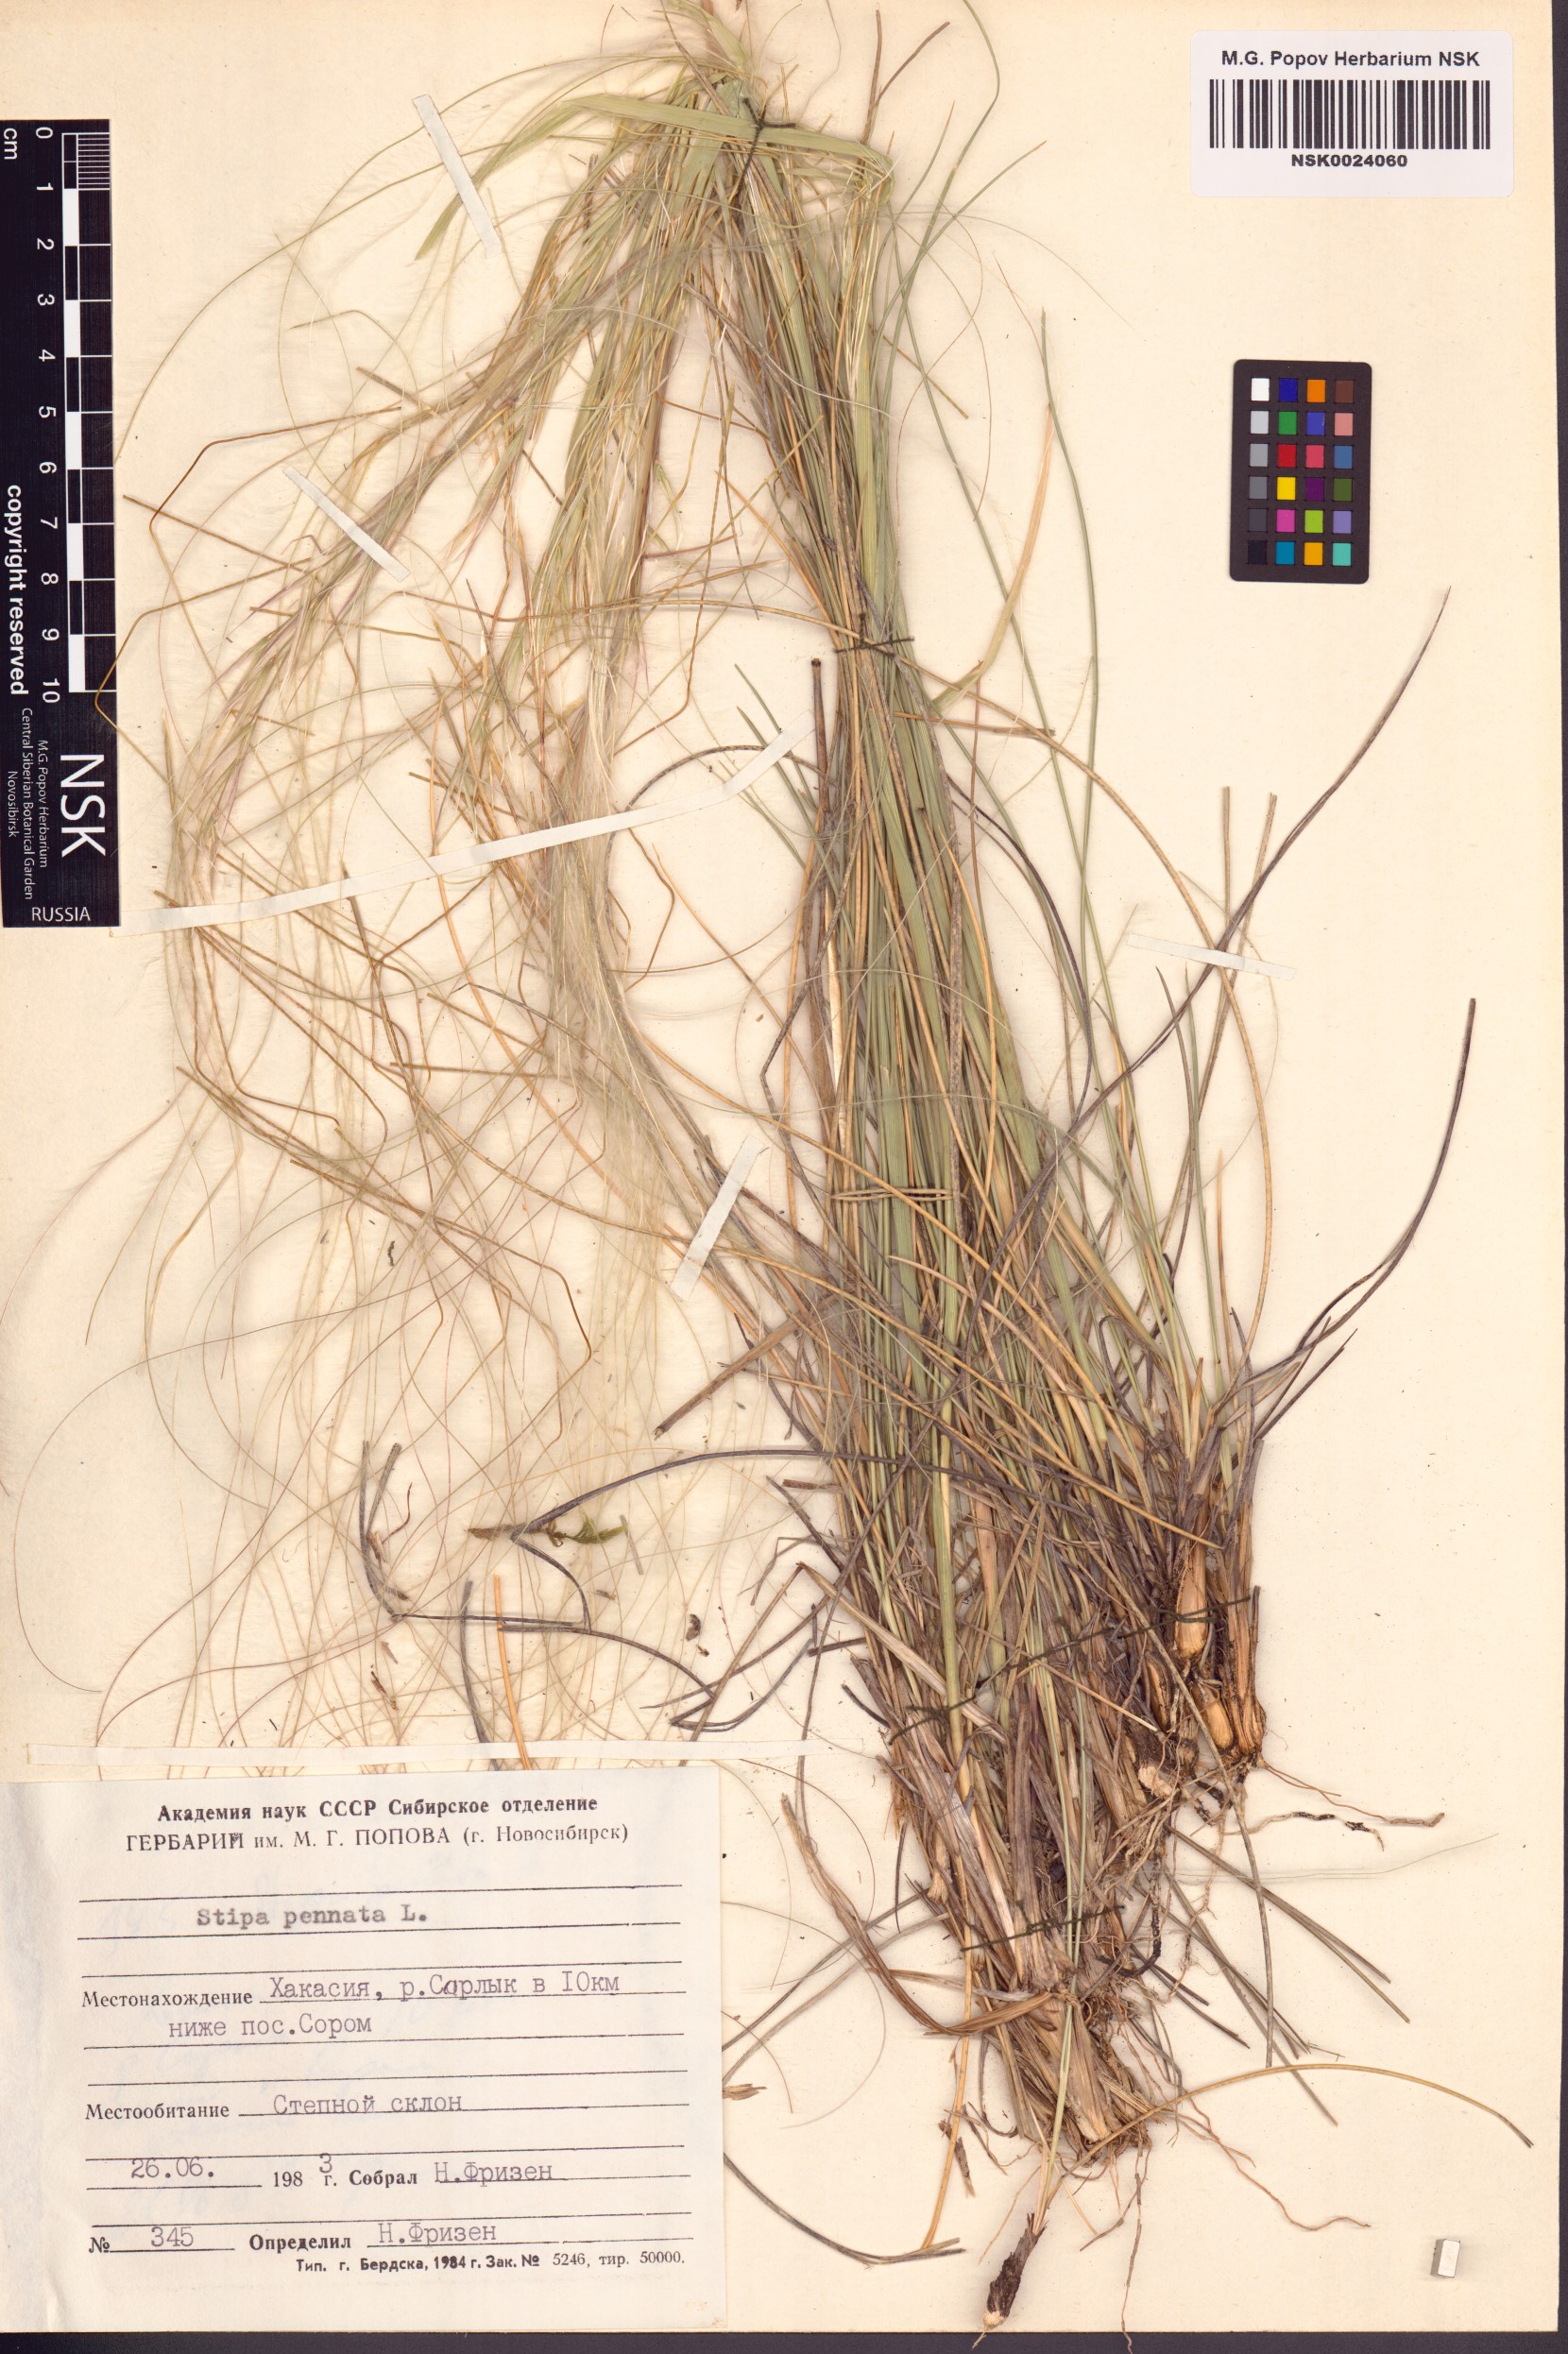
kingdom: Plantae
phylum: Tracheophyta
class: Liliopsida
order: Poales
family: Poaceae
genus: Stipa
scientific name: Stipa pennata
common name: European feather grass
